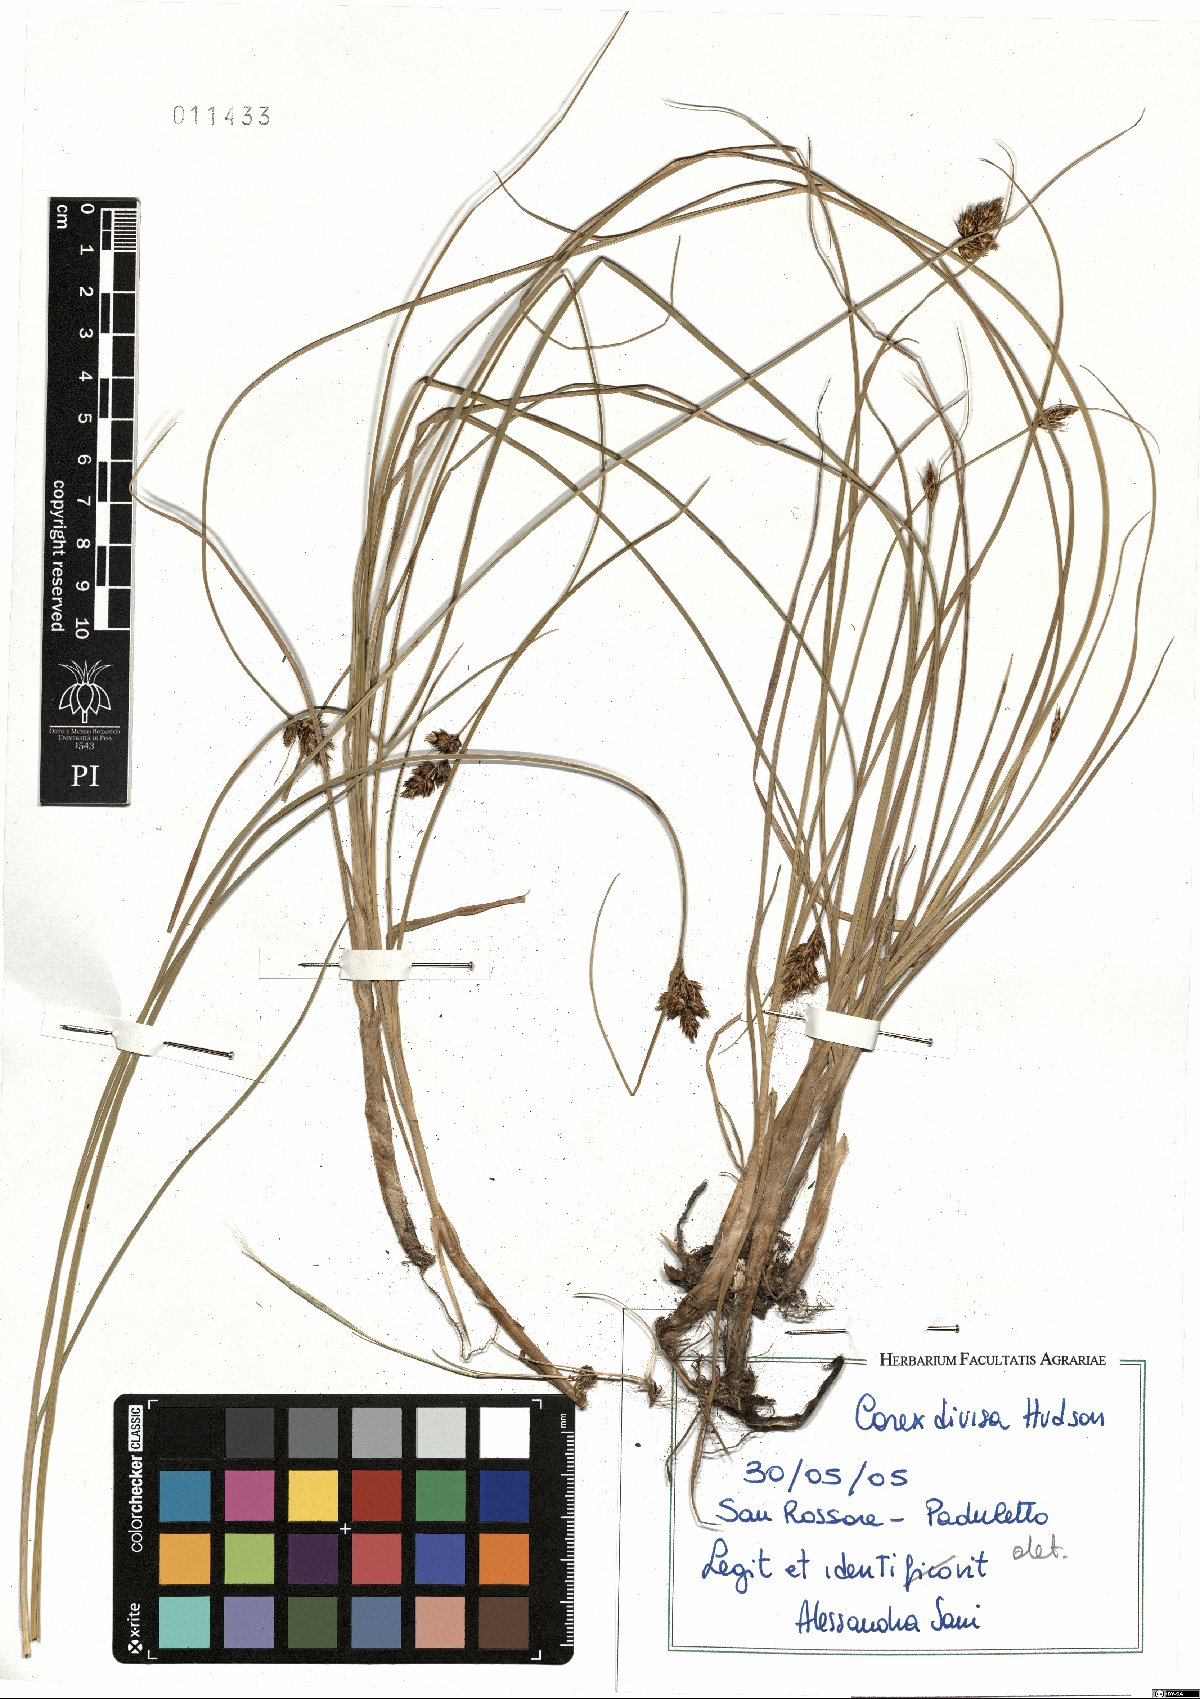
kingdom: Plantae
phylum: Tracheophyta
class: Liliopsida
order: Poales
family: Cyperaceae
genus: Carex
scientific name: Carex divisa
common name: Divided sedge
